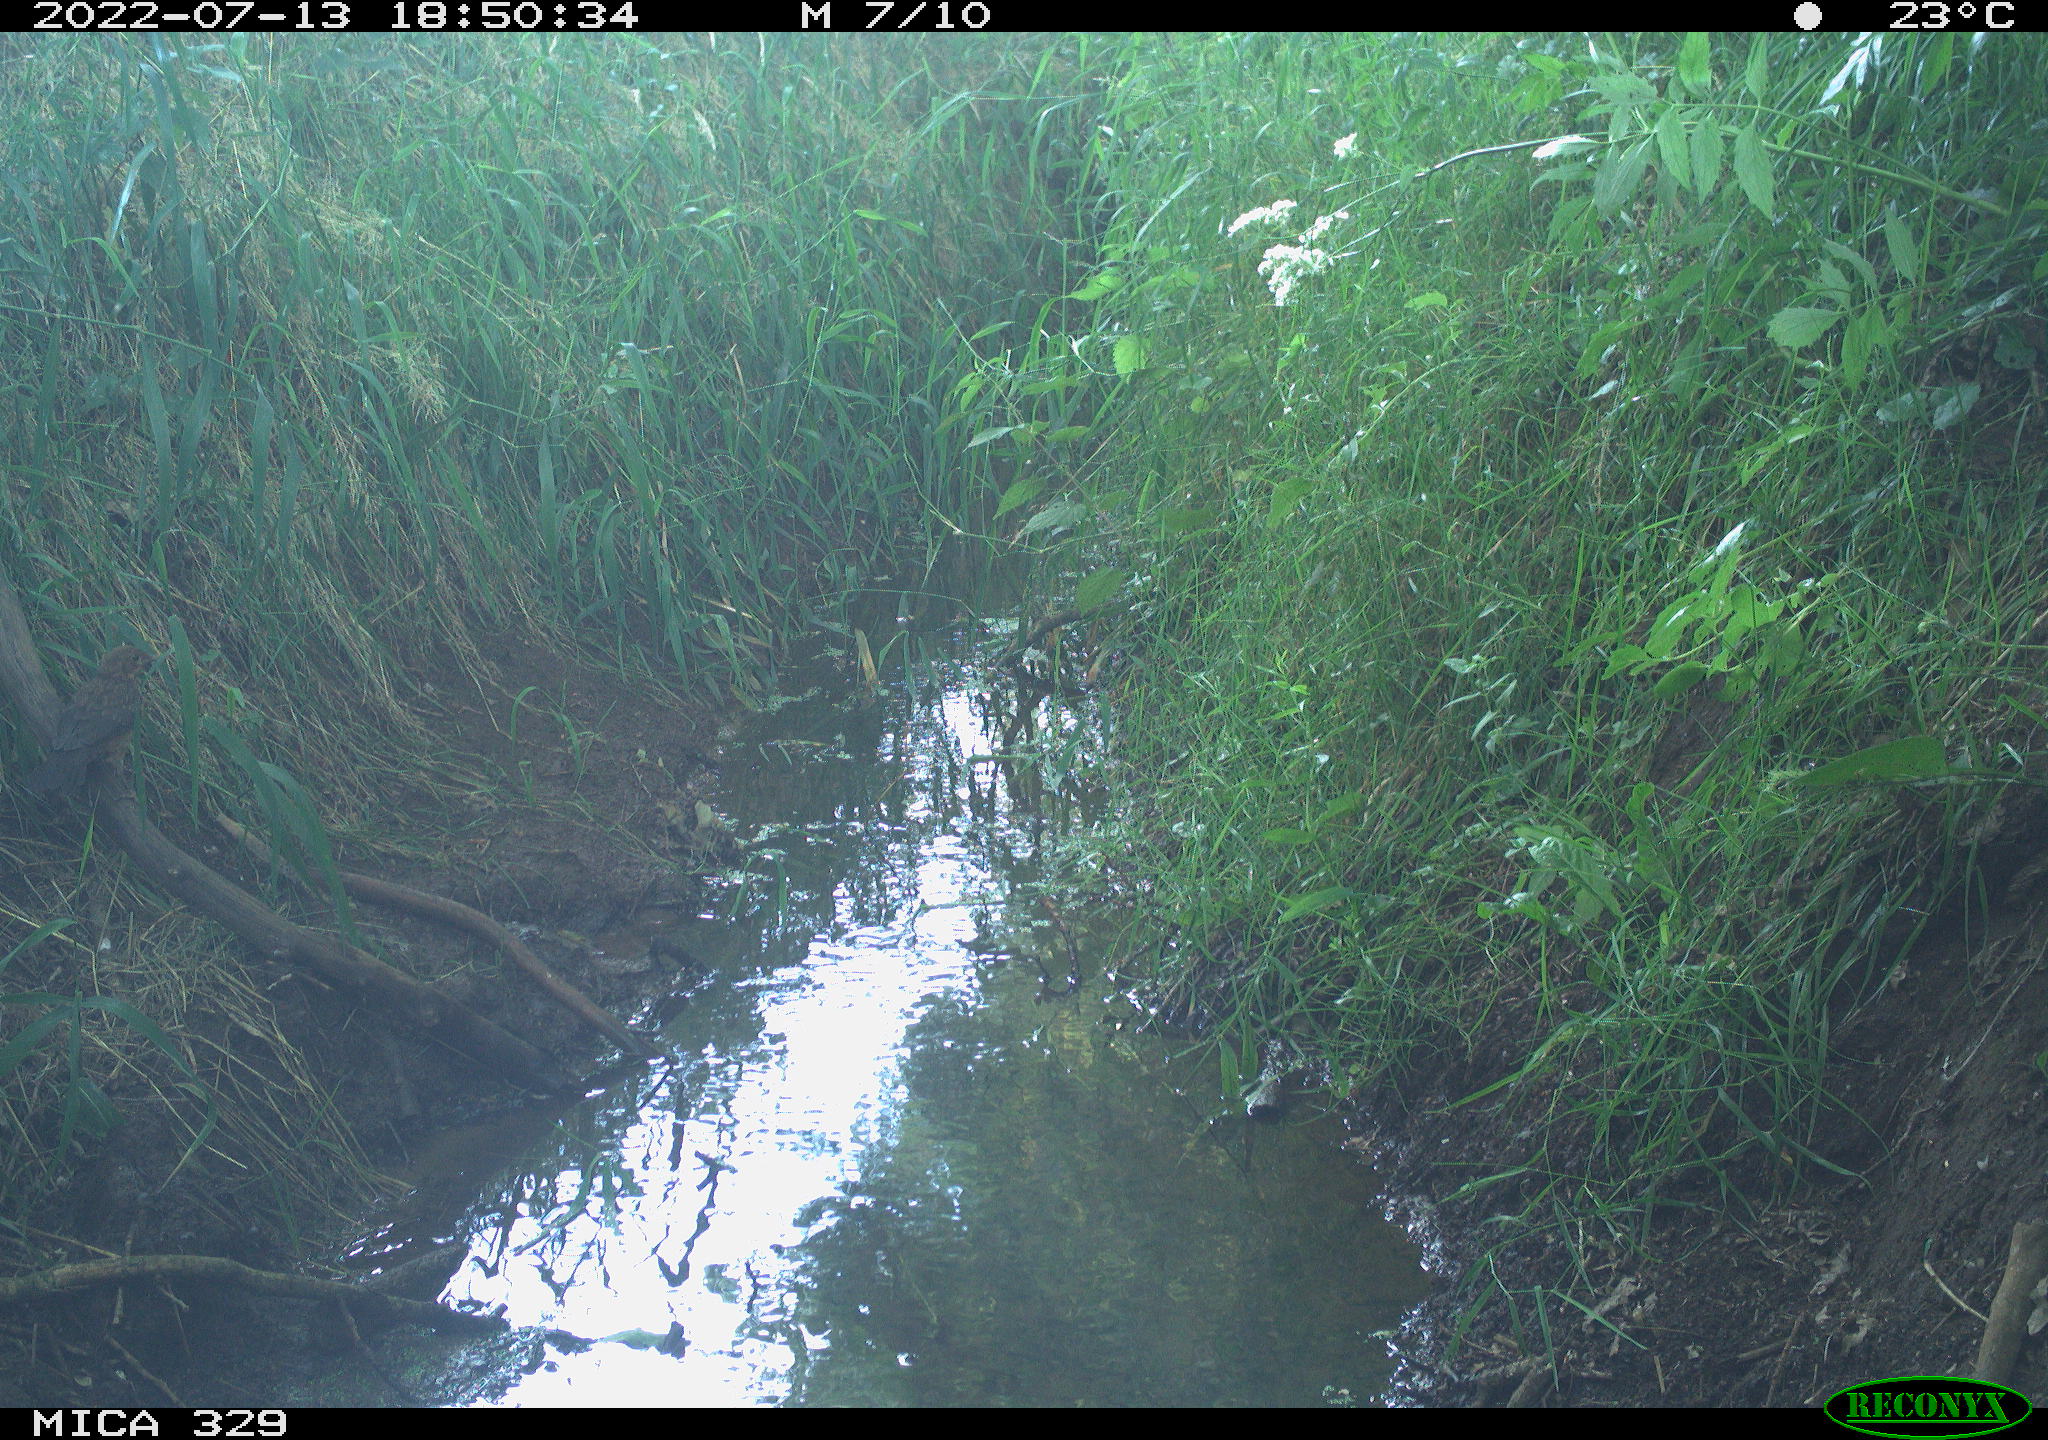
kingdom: Animalia
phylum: Chordata
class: Aves
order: Passeriformes
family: Turdidae
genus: Turdus
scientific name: Turdus merula
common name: Common blackbird
